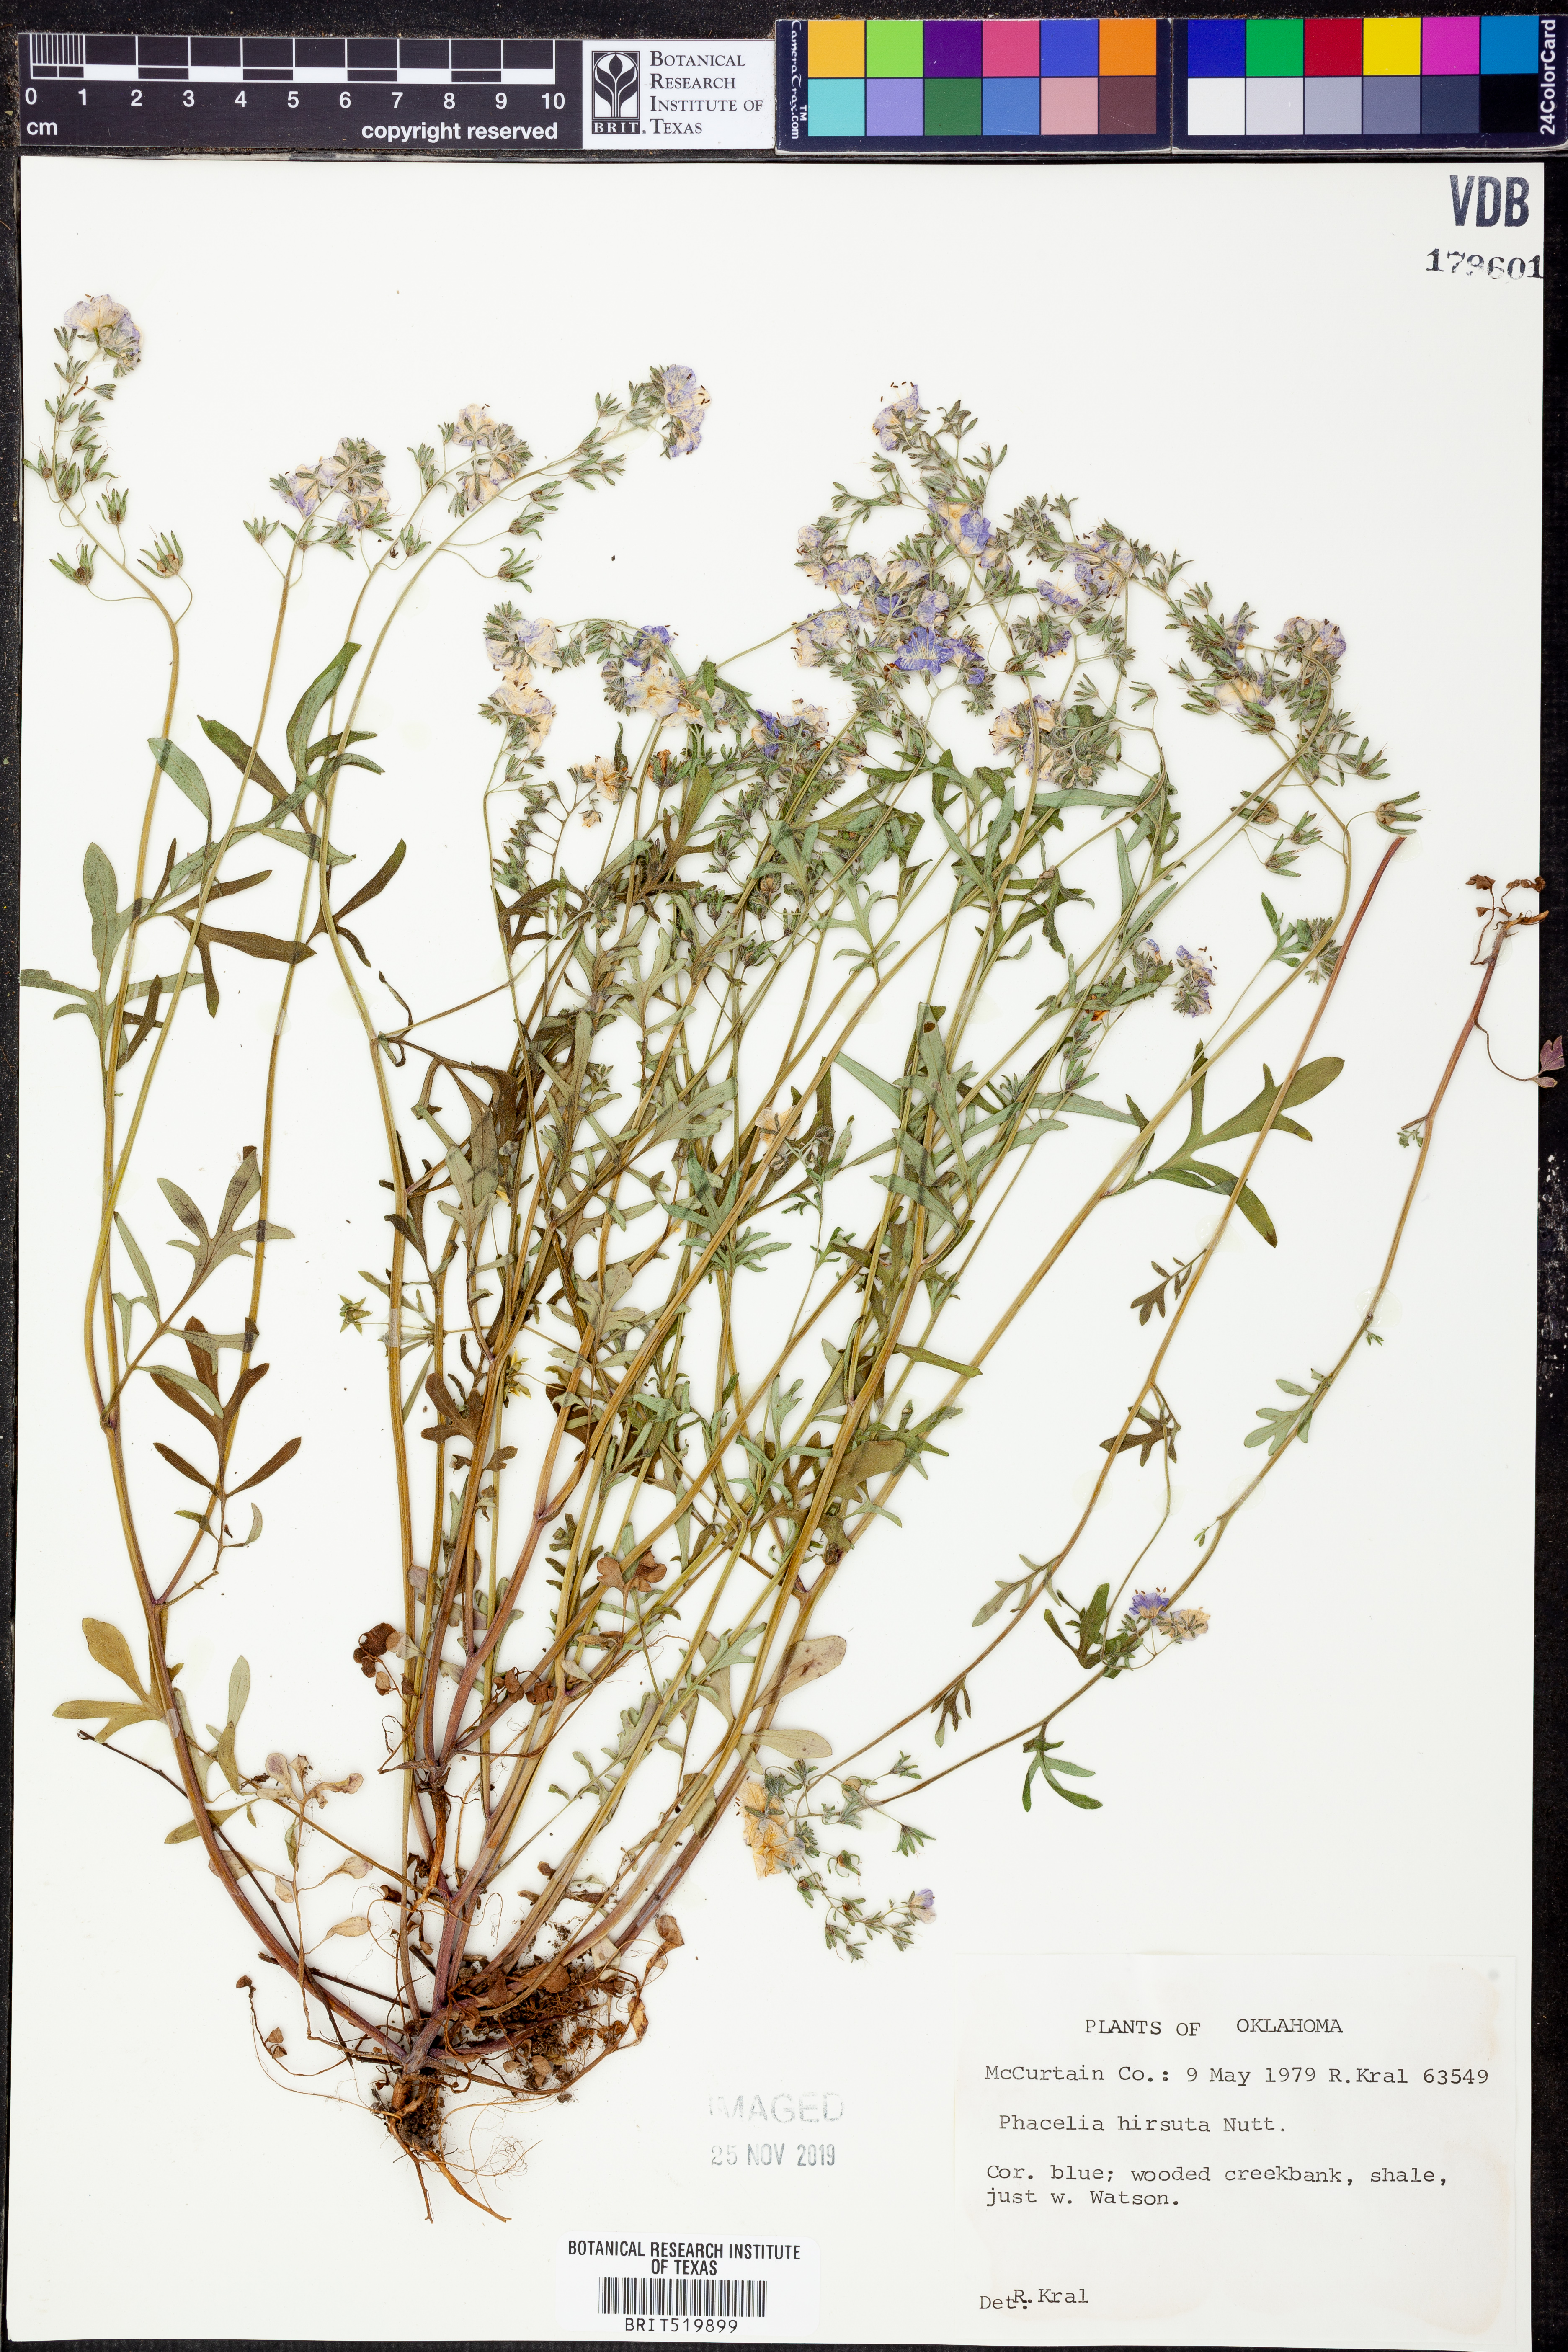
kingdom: Plantae
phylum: Tracheophyta
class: Magnoliopsida
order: Boraginales
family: Hydrophyllaceae
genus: Phacelia
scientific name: Phacelia hirsuta
